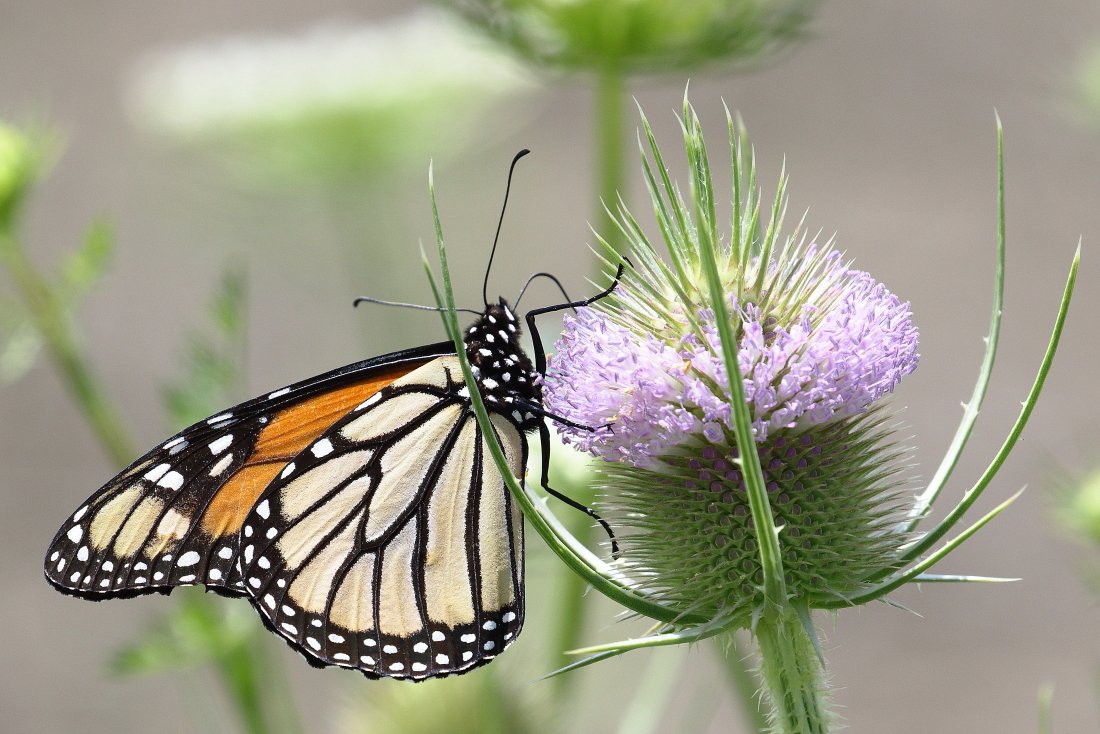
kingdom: Animalia
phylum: Arthropoda
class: Insecta
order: Lepidoptera
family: Nymphalidae
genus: Danaus
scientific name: Danaus plexippus
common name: Monarch
